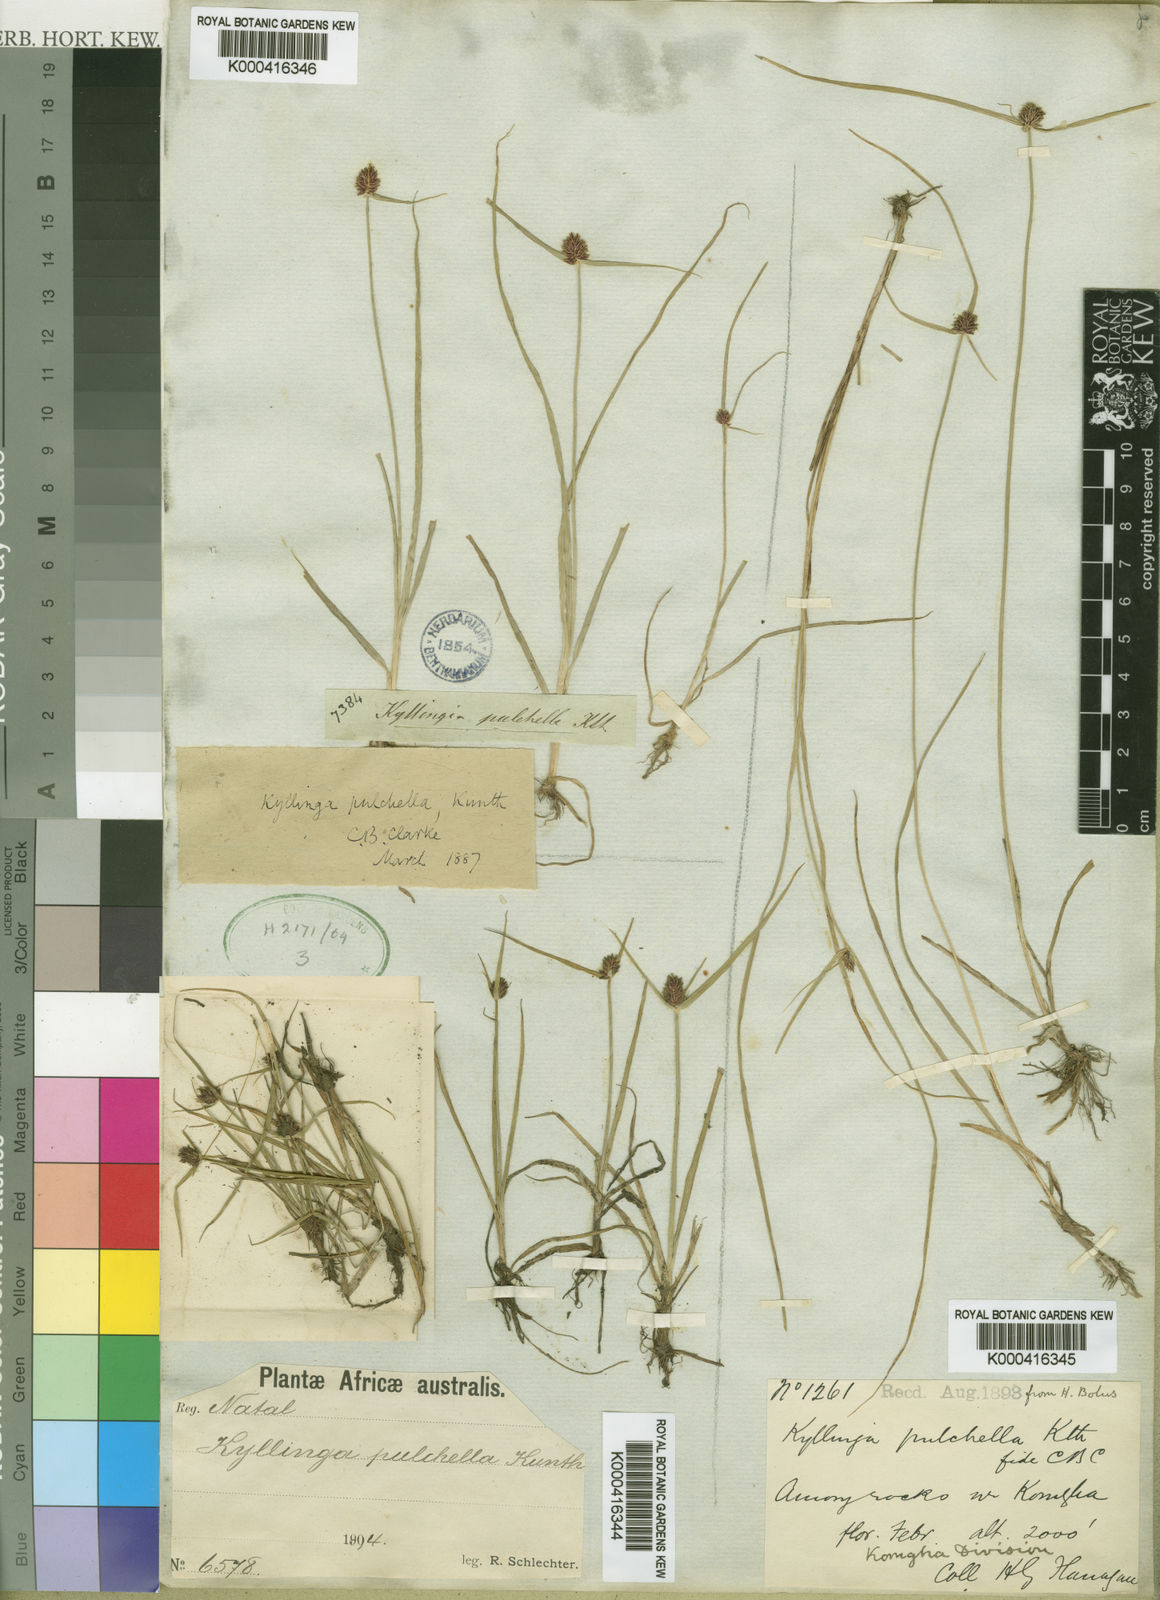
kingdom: Plantae
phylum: Tracheophyta
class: Liliopsida
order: Poales
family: Cyperaceae
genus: Cyperus
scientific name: Cyperus bracheilema
